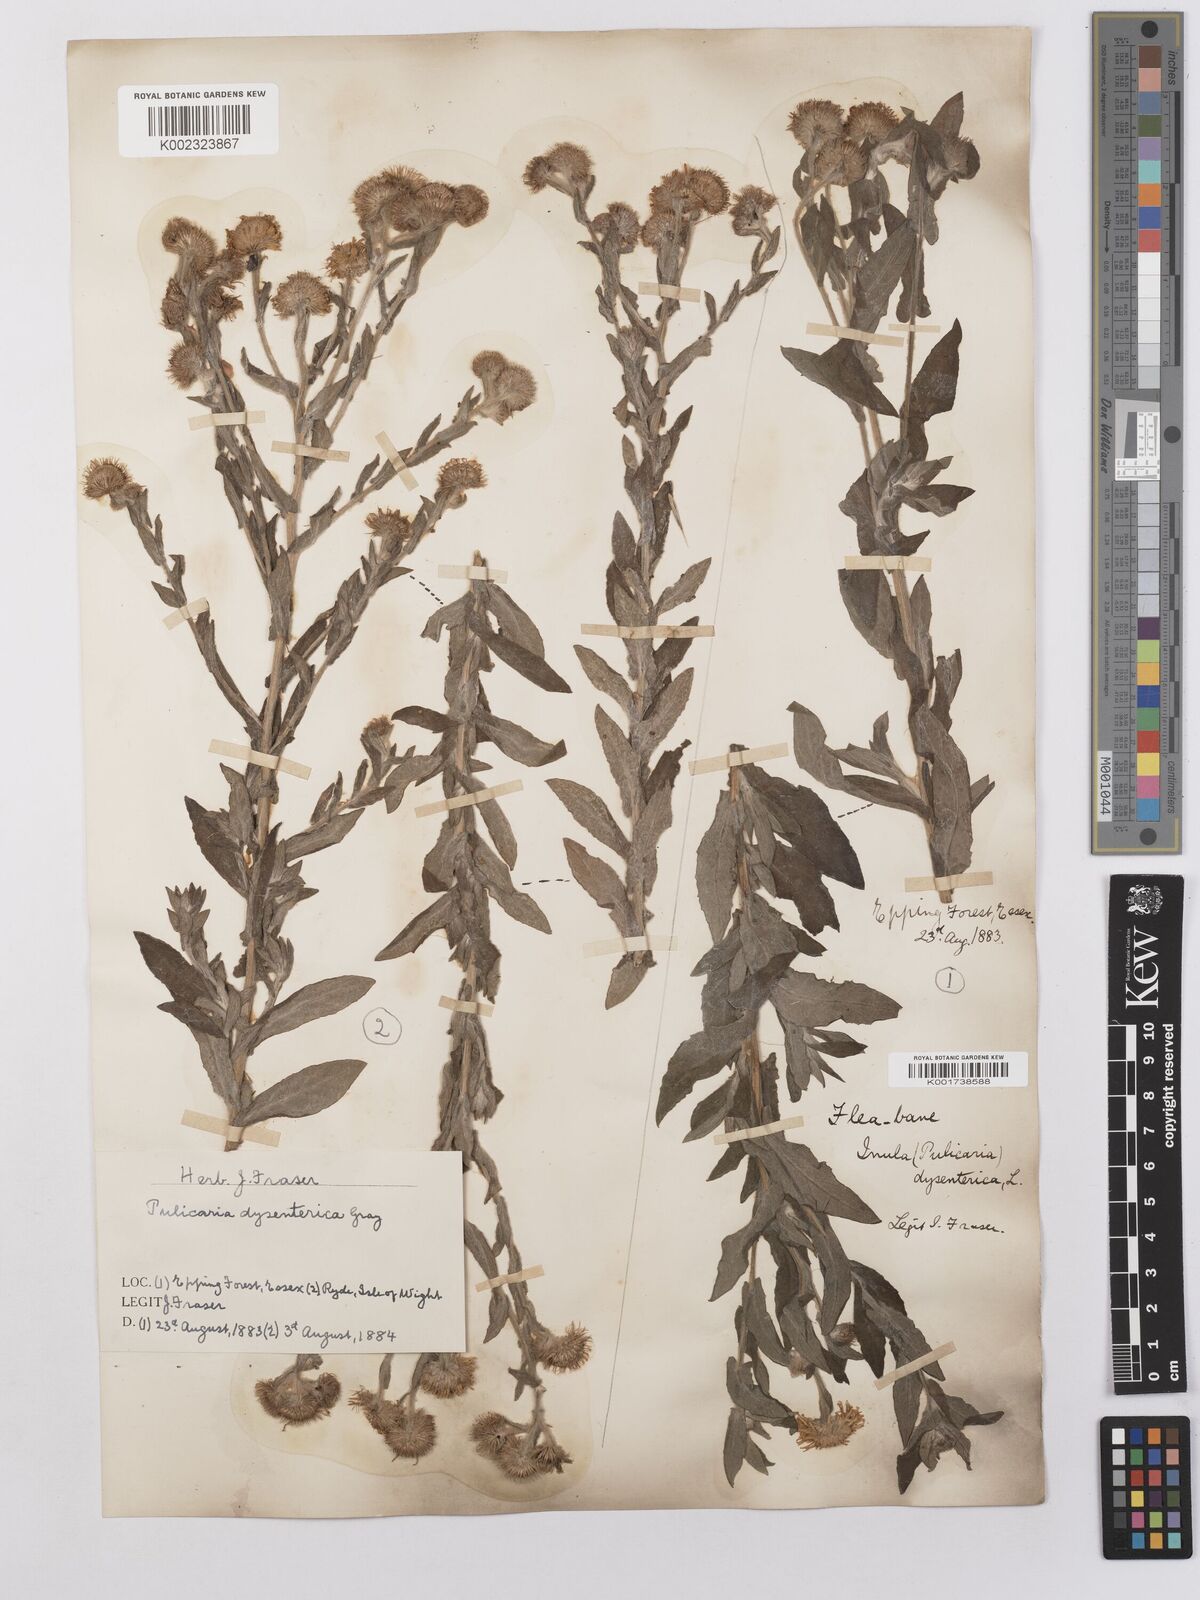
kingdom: Plantae
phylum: Tracheophyta
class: Magnoliopsida
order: Asterales
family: Asteraceae
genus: Pulicaria
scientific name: Pulicaria dysenterica
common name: Common fleabane
